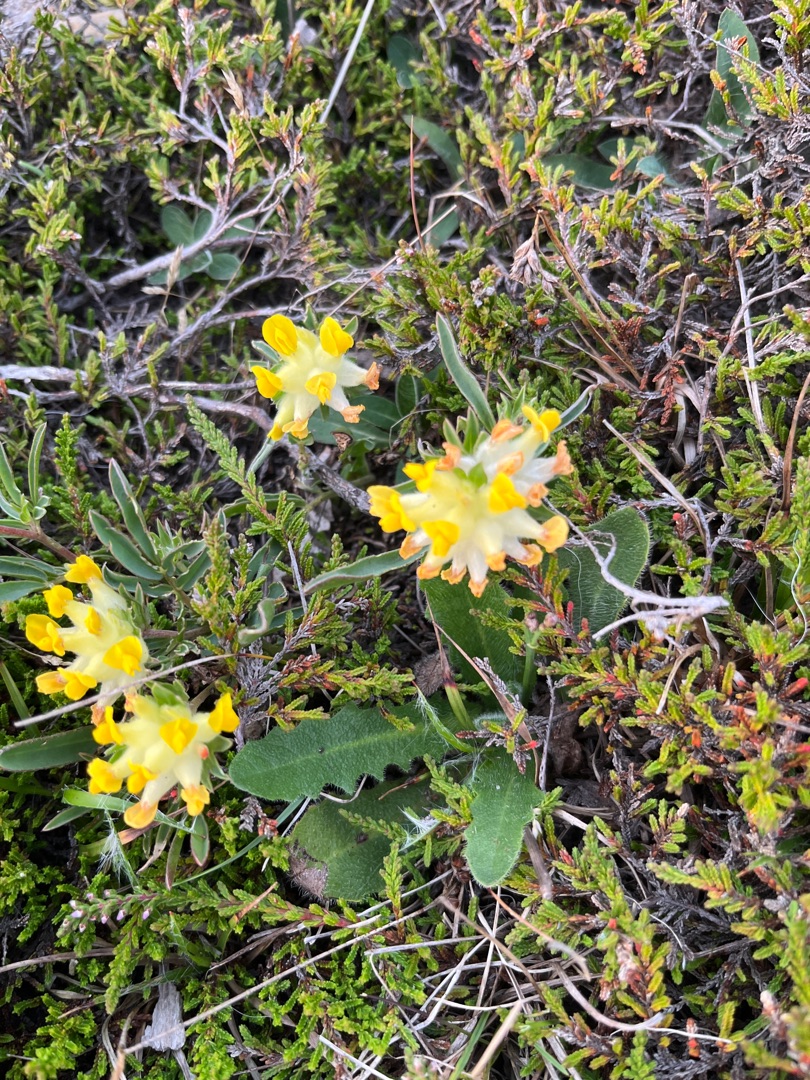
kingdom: Plantae
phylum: Tracheophyta
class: Magnoliopsida
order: Fabales
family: Fabaceae
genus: Anthyllis
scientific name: Anthyllis vulneraria
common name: Rundbælg
